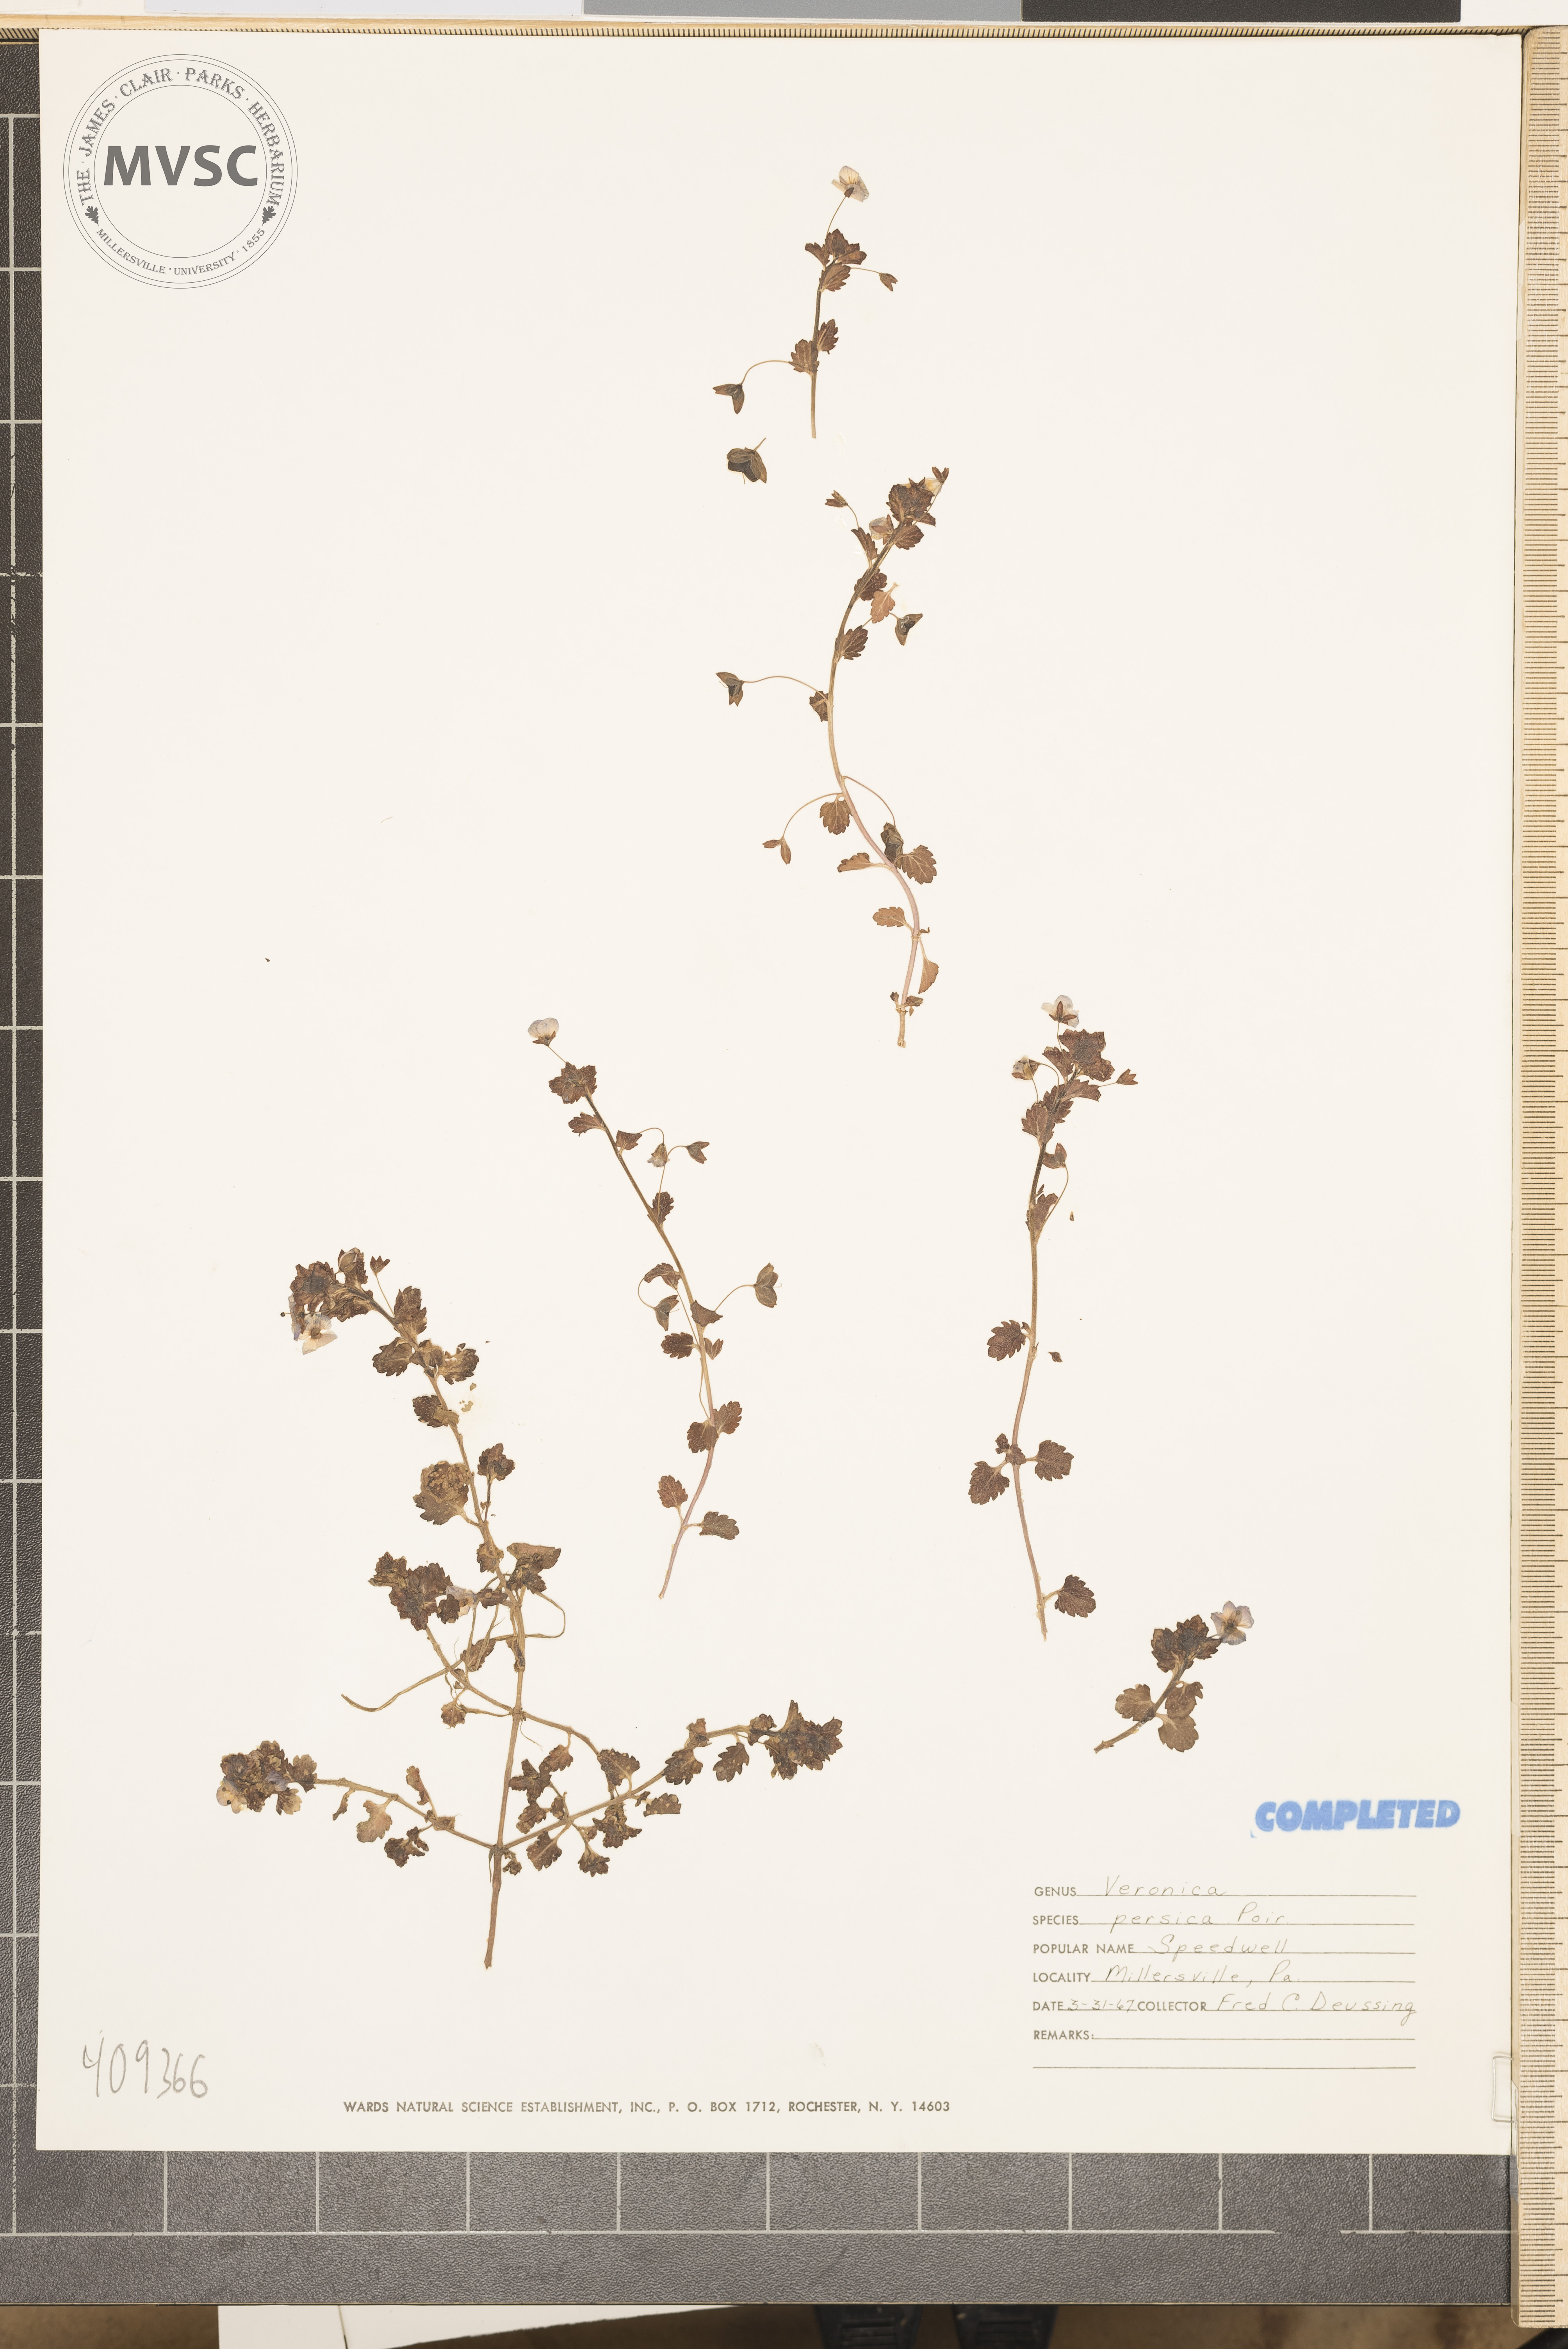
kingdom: Plantae
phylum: Tracheophyta
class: Magnoliopsida
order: Lamiales
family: Plantaginaceae
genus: Veronica
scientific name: Veronica persica
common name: Common field-speedwell
